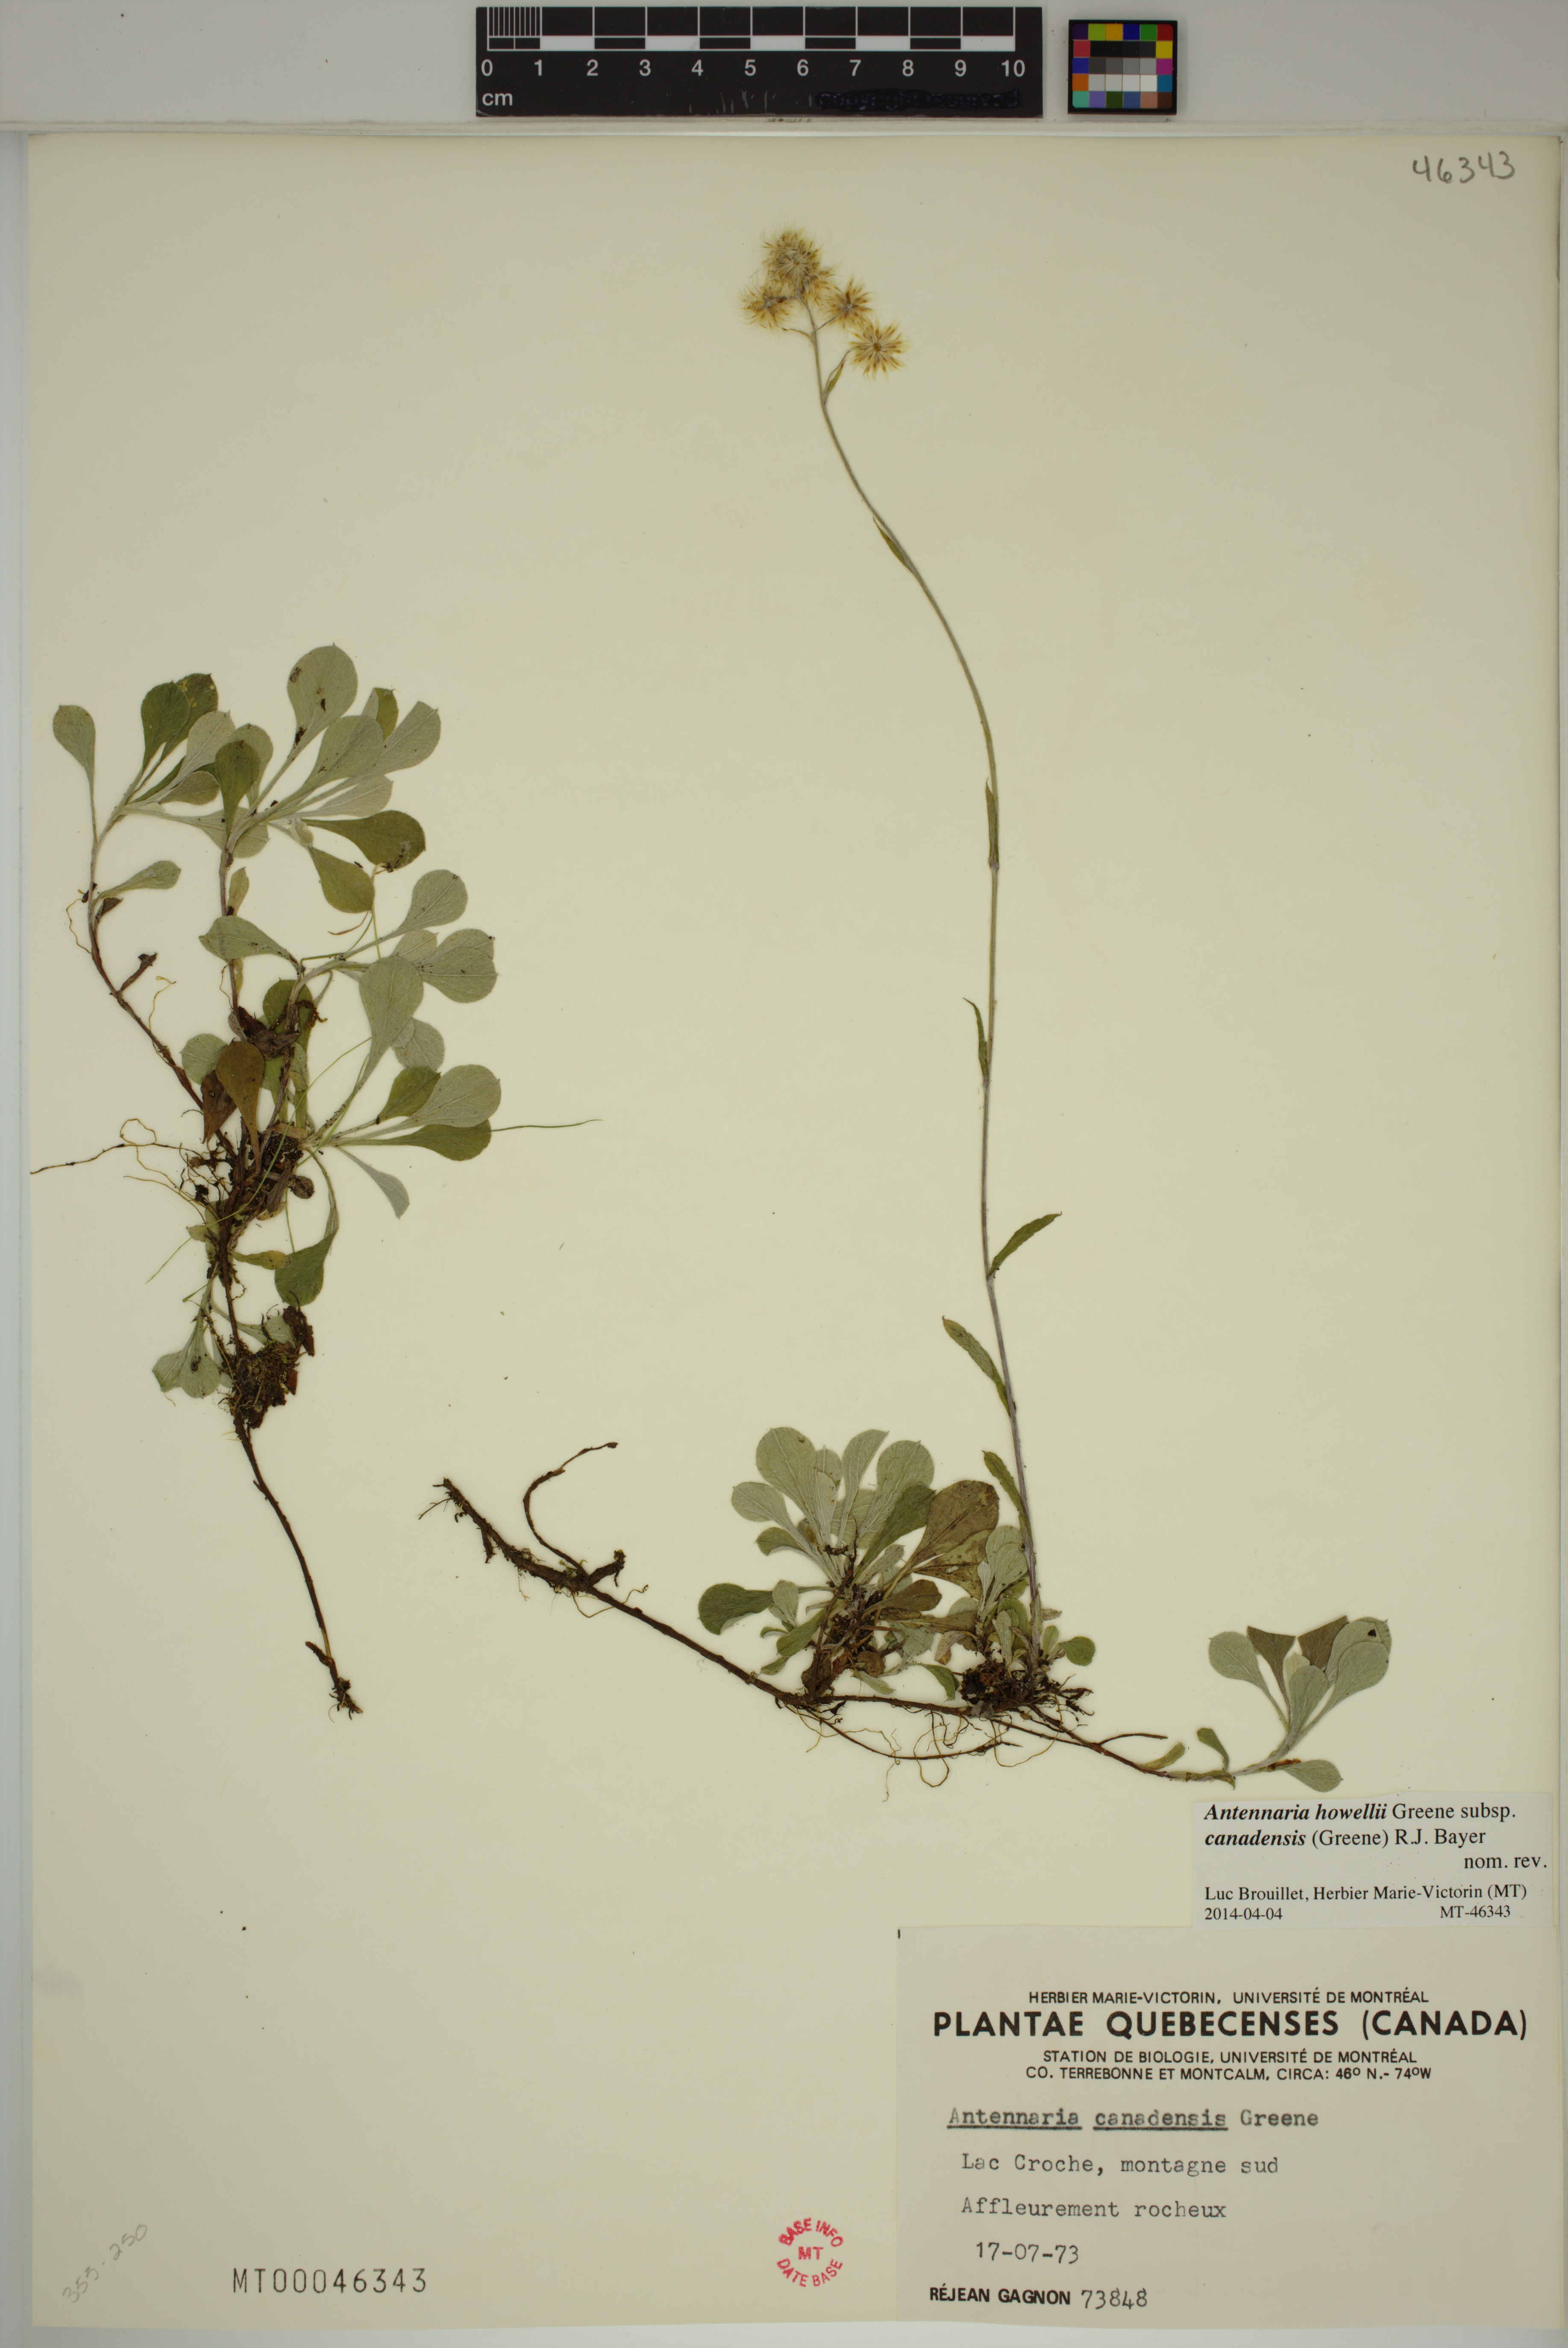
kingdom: Plantae
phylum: Tracheophyta
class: Magnoliopsida
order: Asterales
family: Asteraceae
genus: Antennaria
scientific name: Antennaria howellii
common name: Howell's pussytoes
